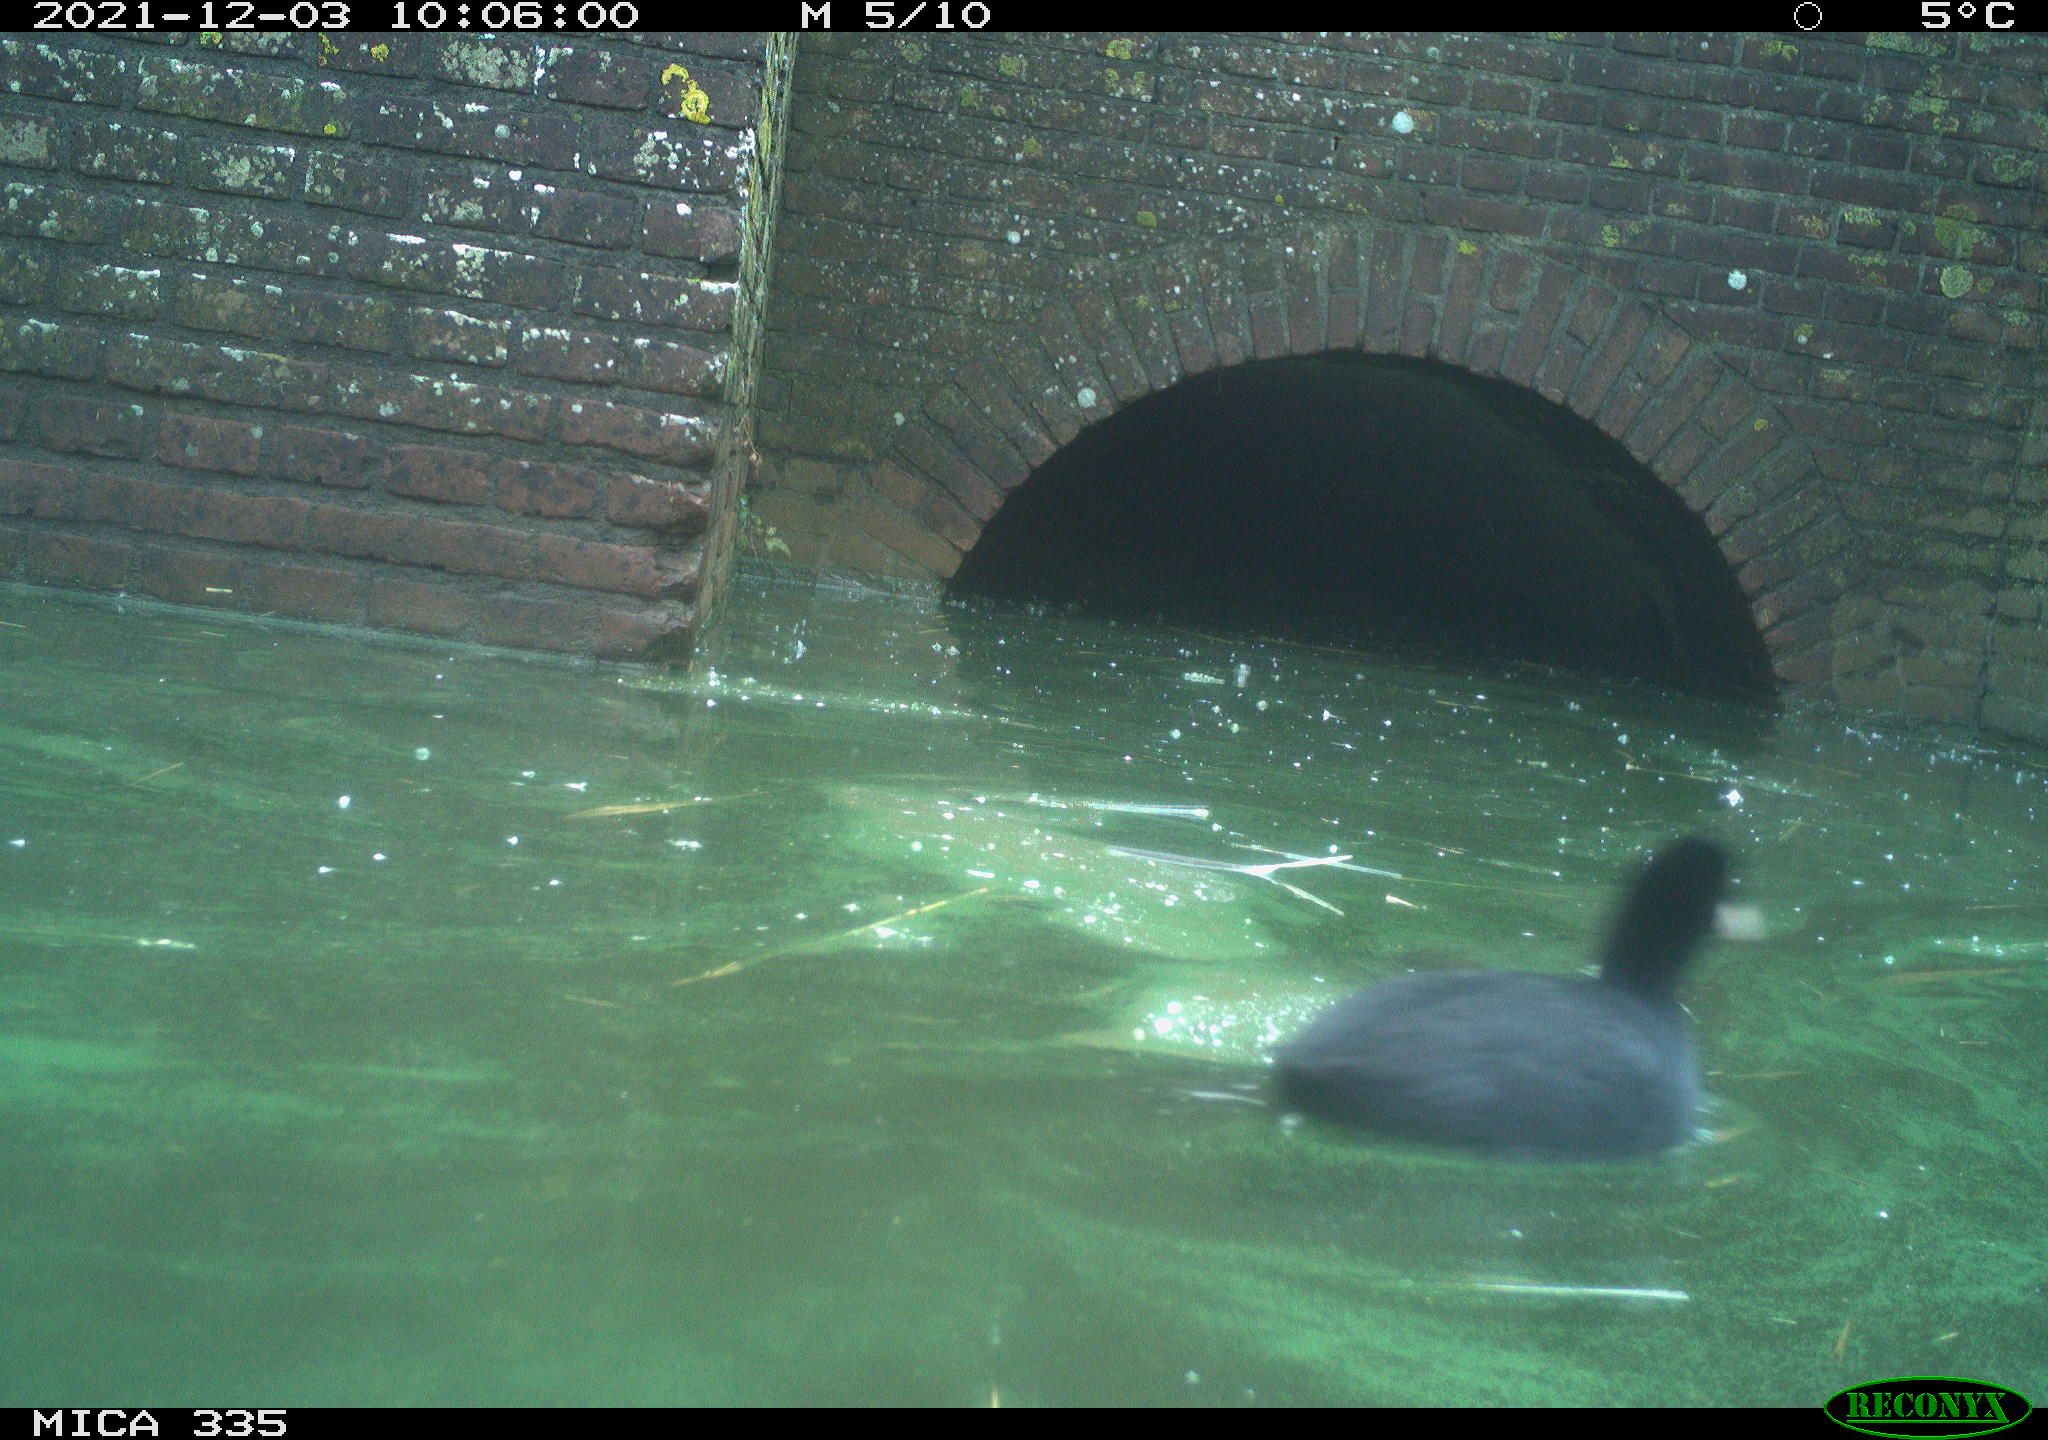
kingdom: Animalia
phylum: Chordata
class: Aves
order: Gruiformes
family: Rallidae
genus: Fulica
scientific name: Fulica atra
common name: Eurasian coot
